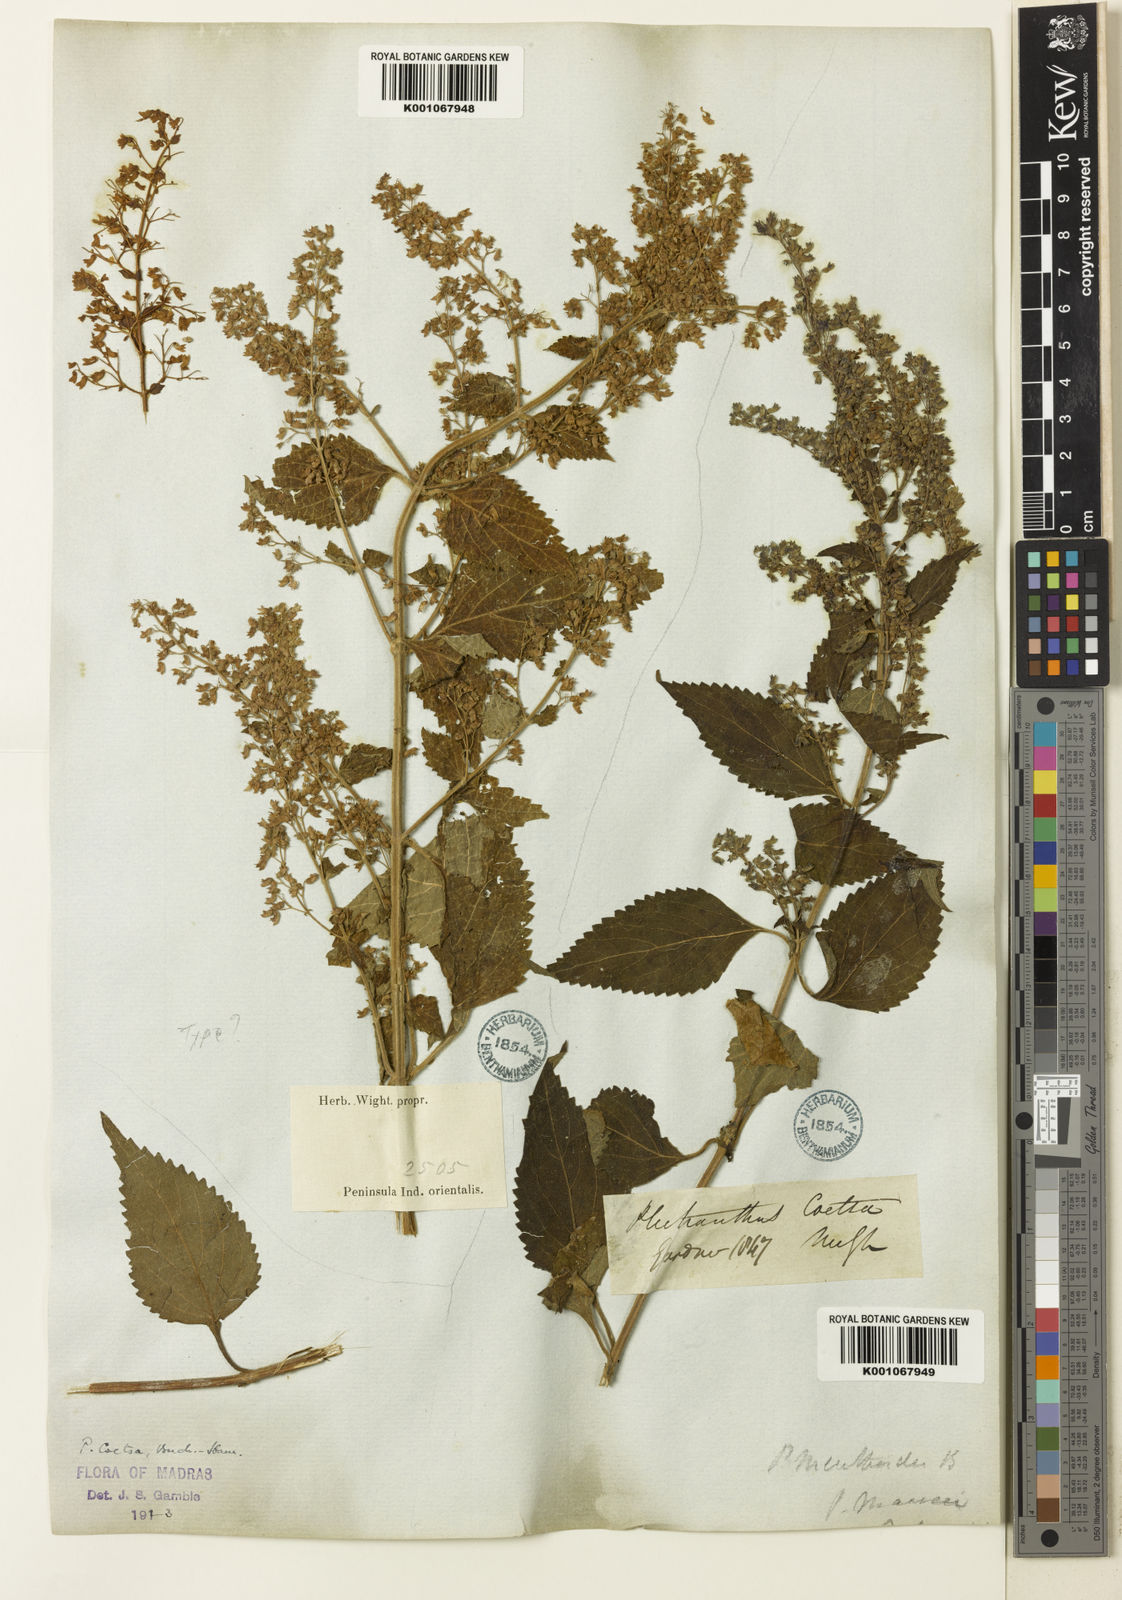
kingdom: Plantae
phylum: Tracheophyta
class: Magnoliopsida
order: Lamiales
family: Lamiaceae
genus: Isodon
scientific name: Isodon
